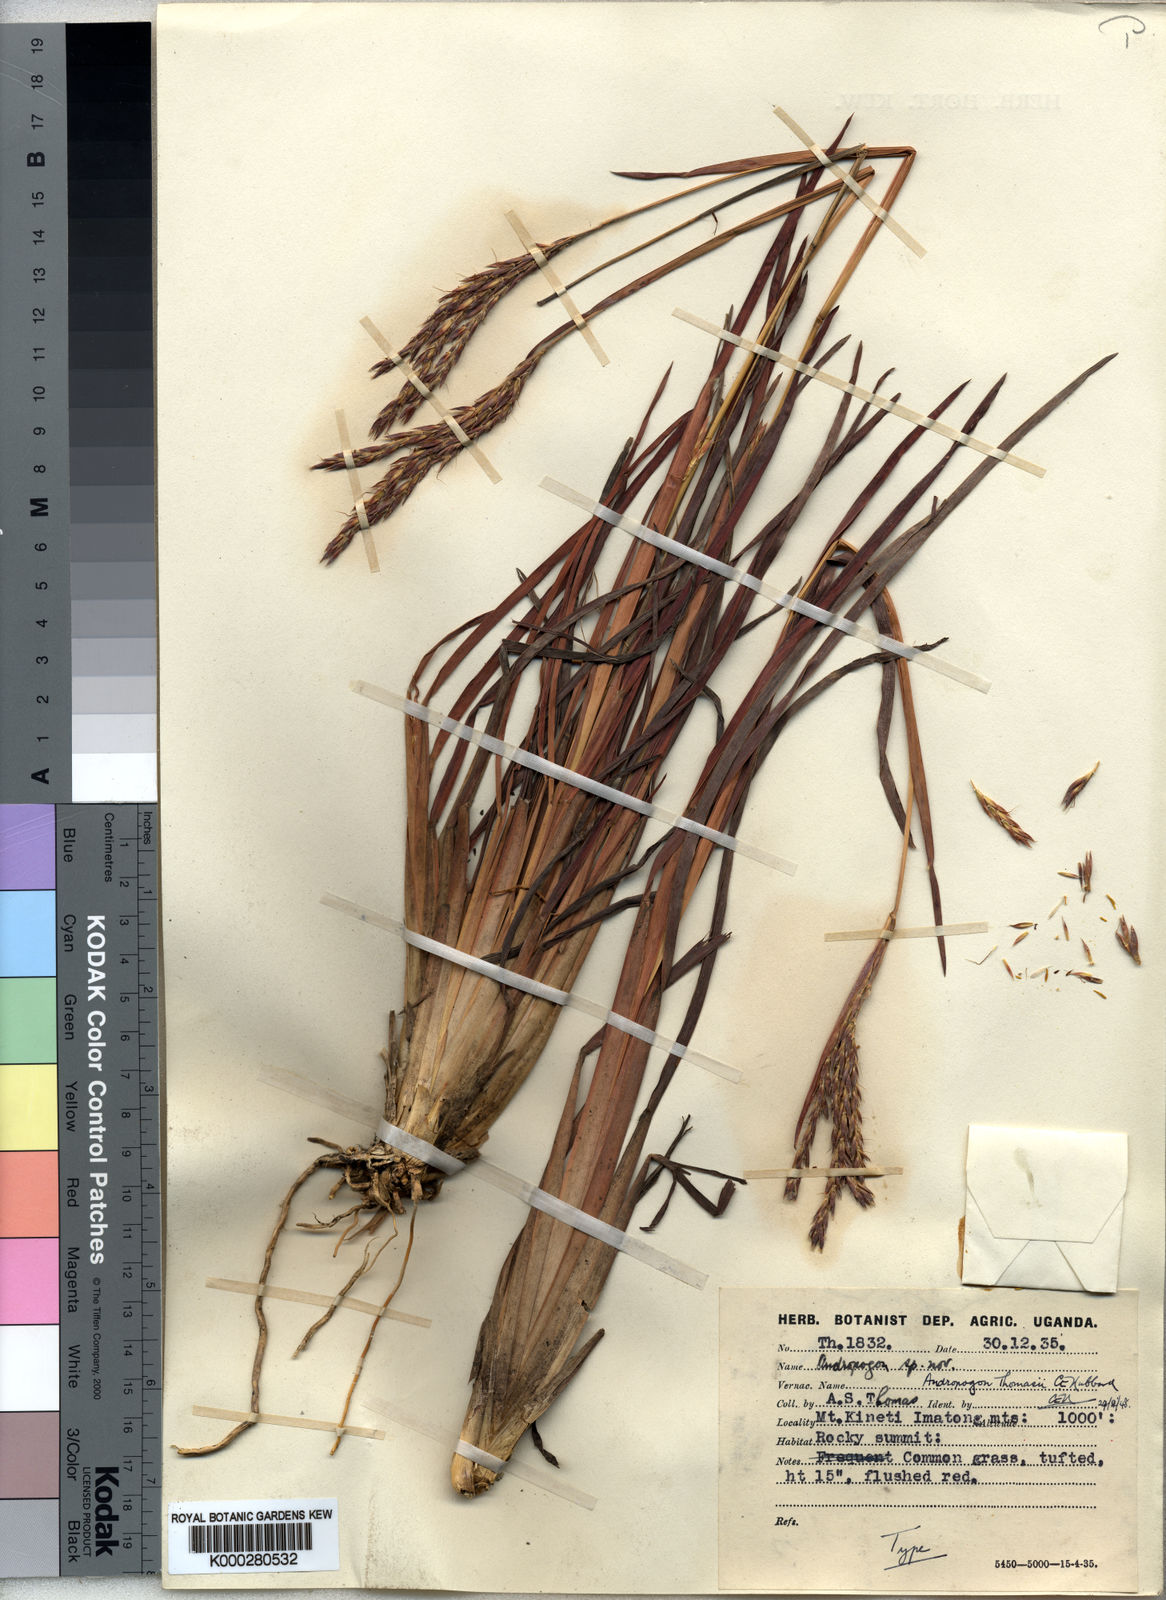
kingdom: Plantae
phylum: Tracheophyta
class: Liliopsida
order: Poales
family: Poaceae
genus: Andropogon
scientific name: Andropogon mannii
